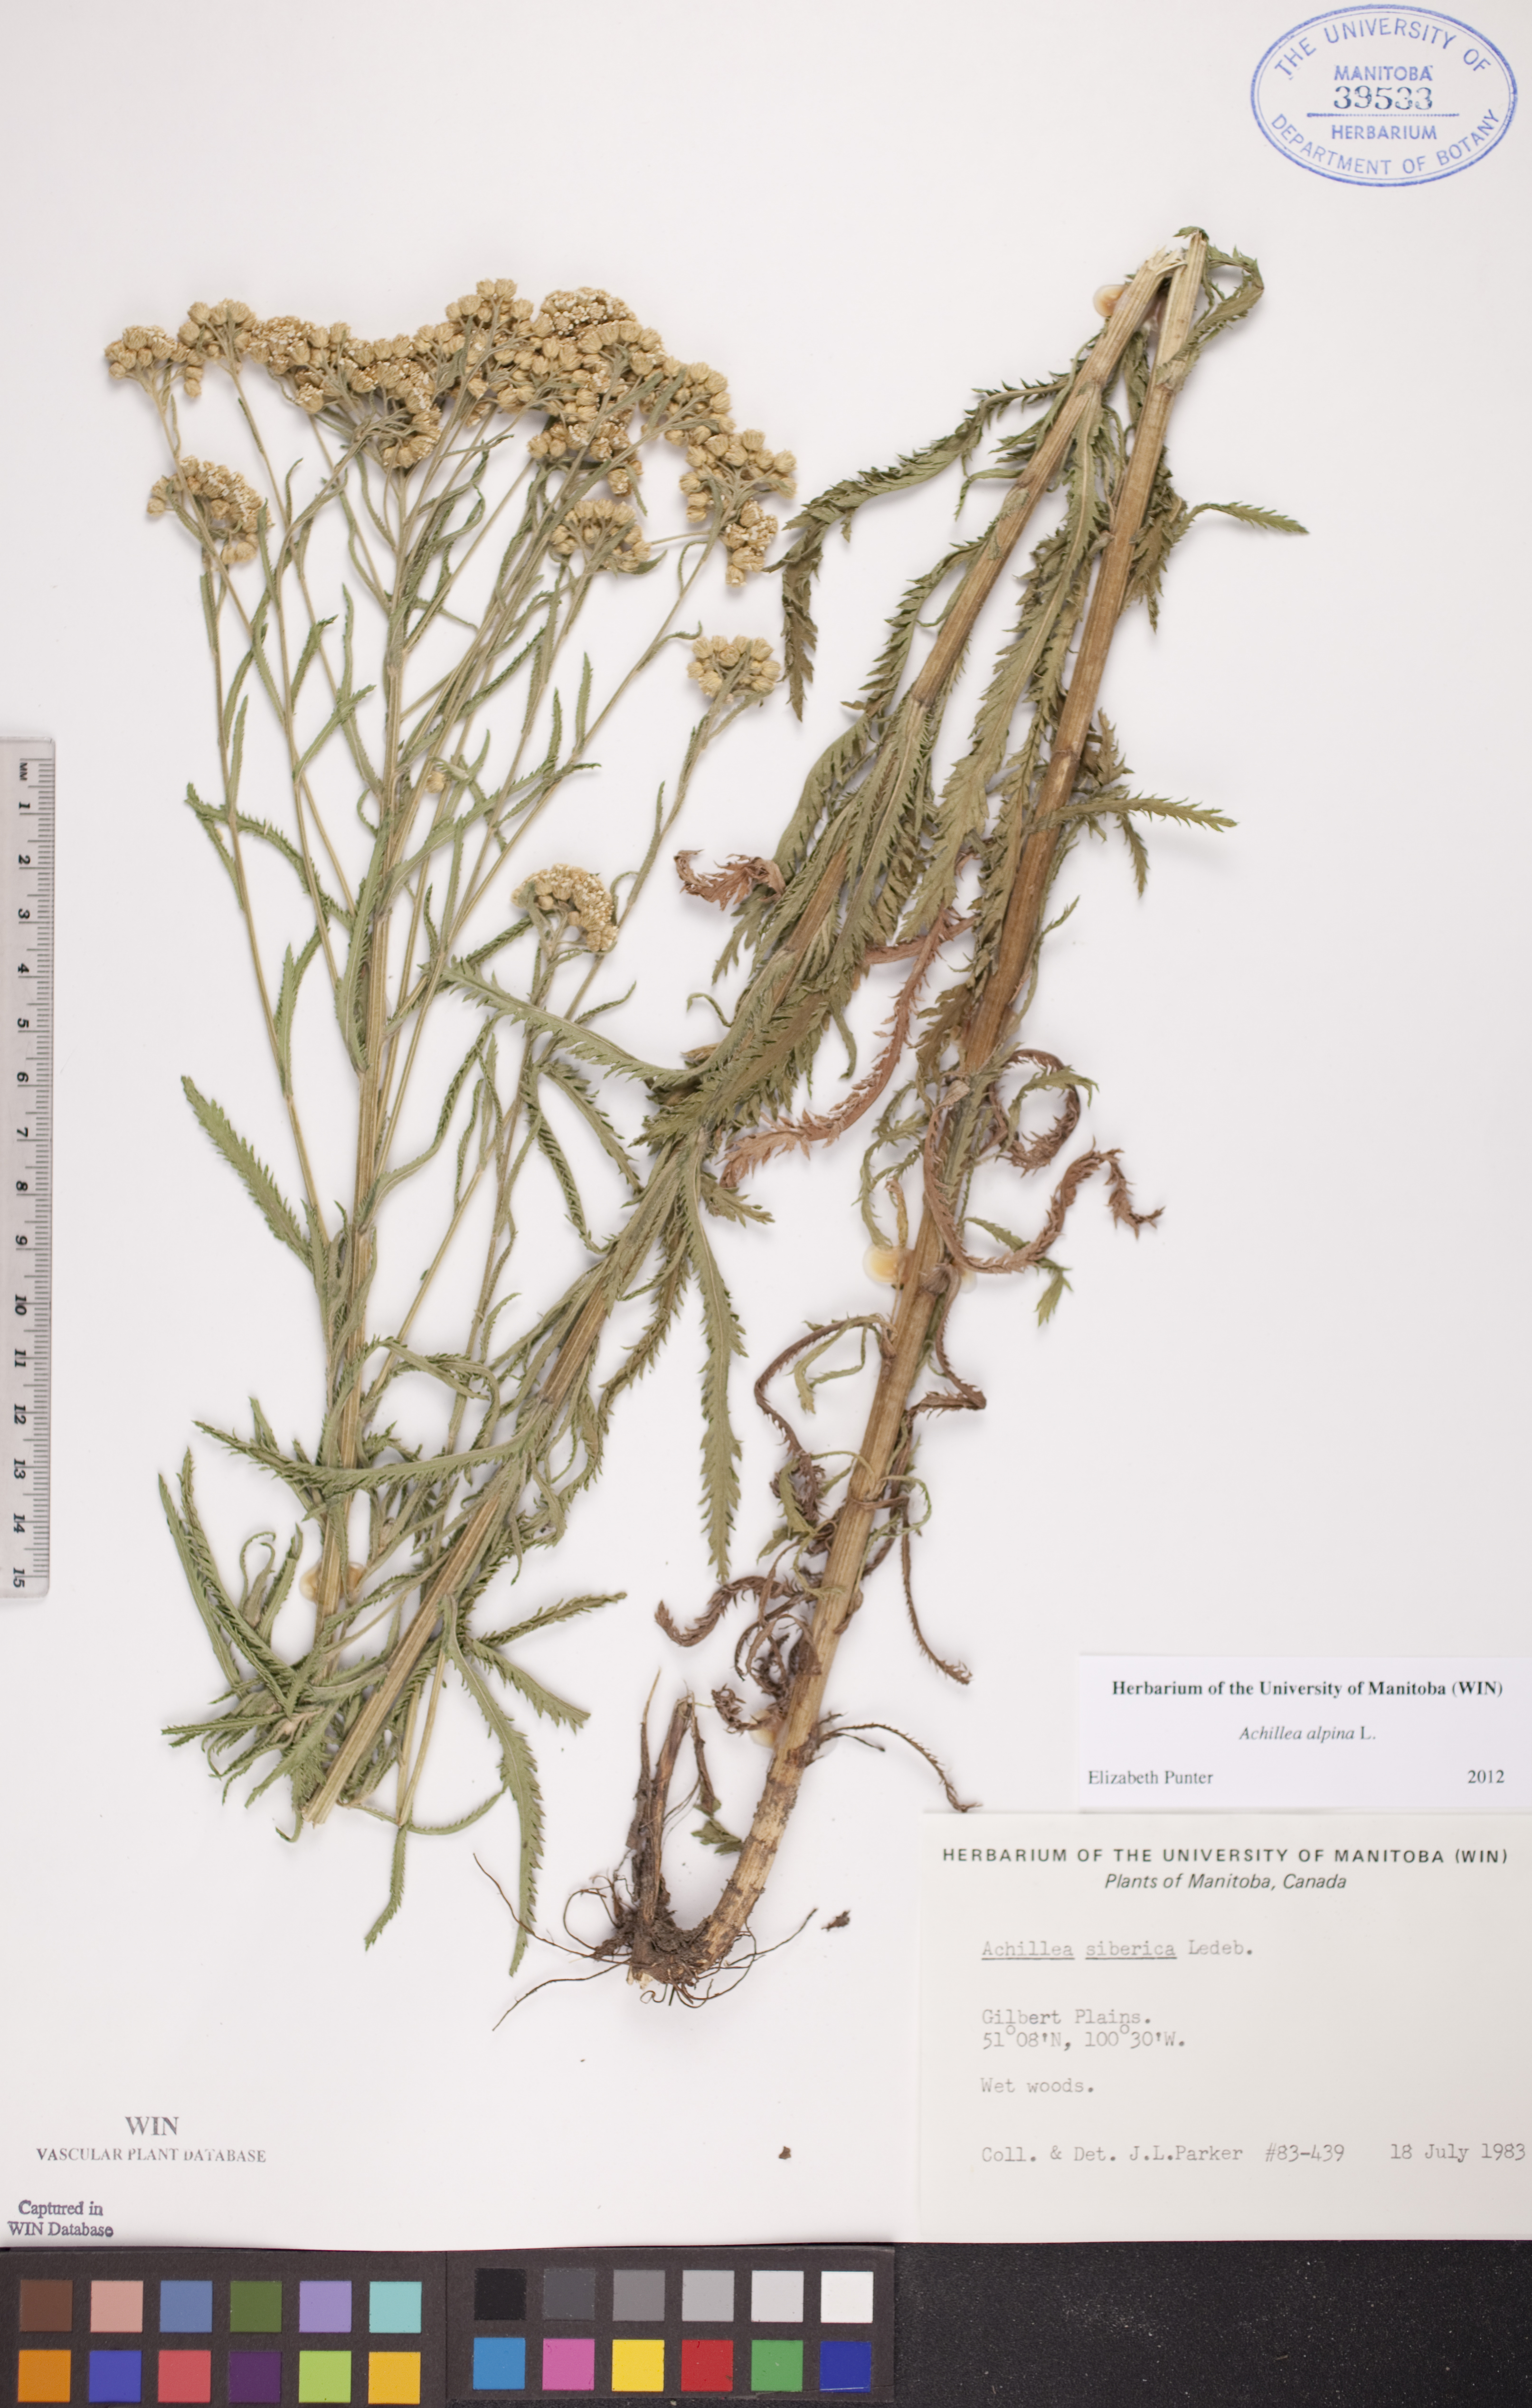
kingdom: Plantae
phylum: Tracheophyta
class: Magnoliopsida
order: Asterales
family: Asteraceae
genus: Achillea
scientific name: Achillea alpina
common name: Siberian yarrow
